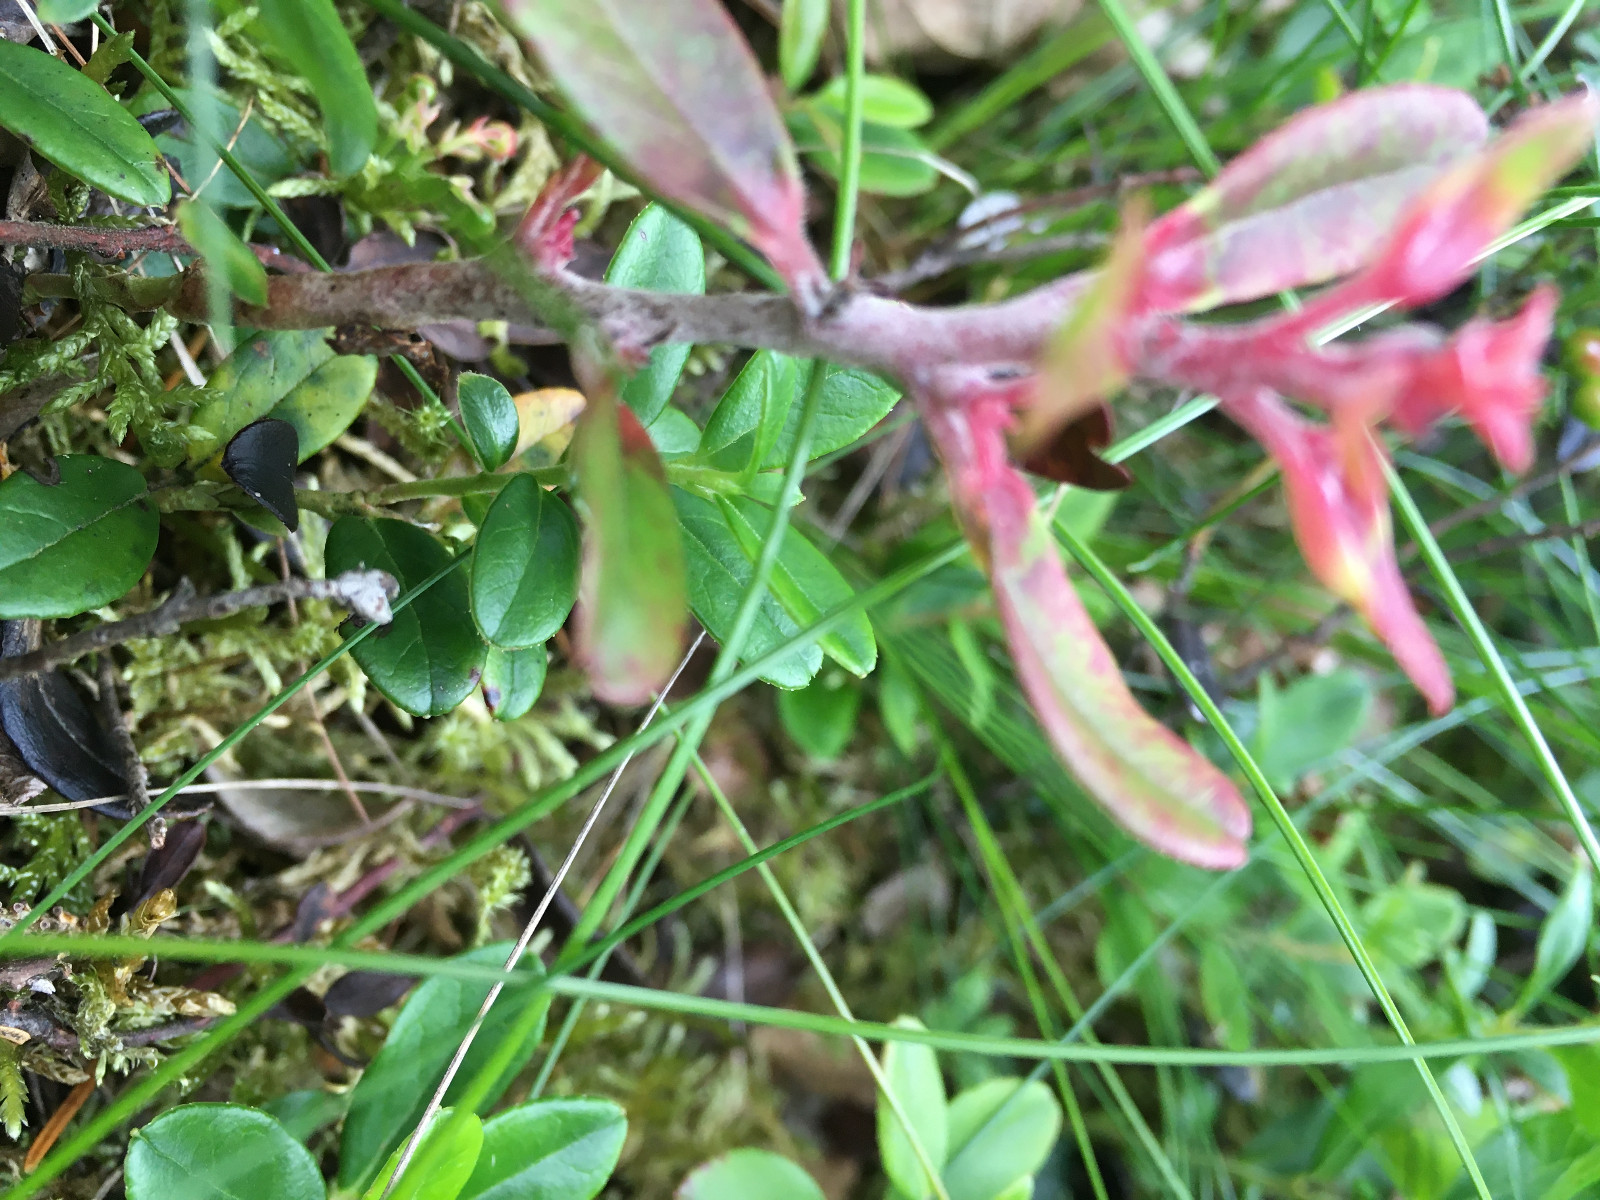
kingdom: Fungi
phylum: Basidiomycota
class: Exobasidiomycetes
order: Exobasidiales
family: Exobasidiaceae
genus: Exobasidium
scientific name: Exobasidium vaccinii
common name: tyttebærblad-bøllesvamp
